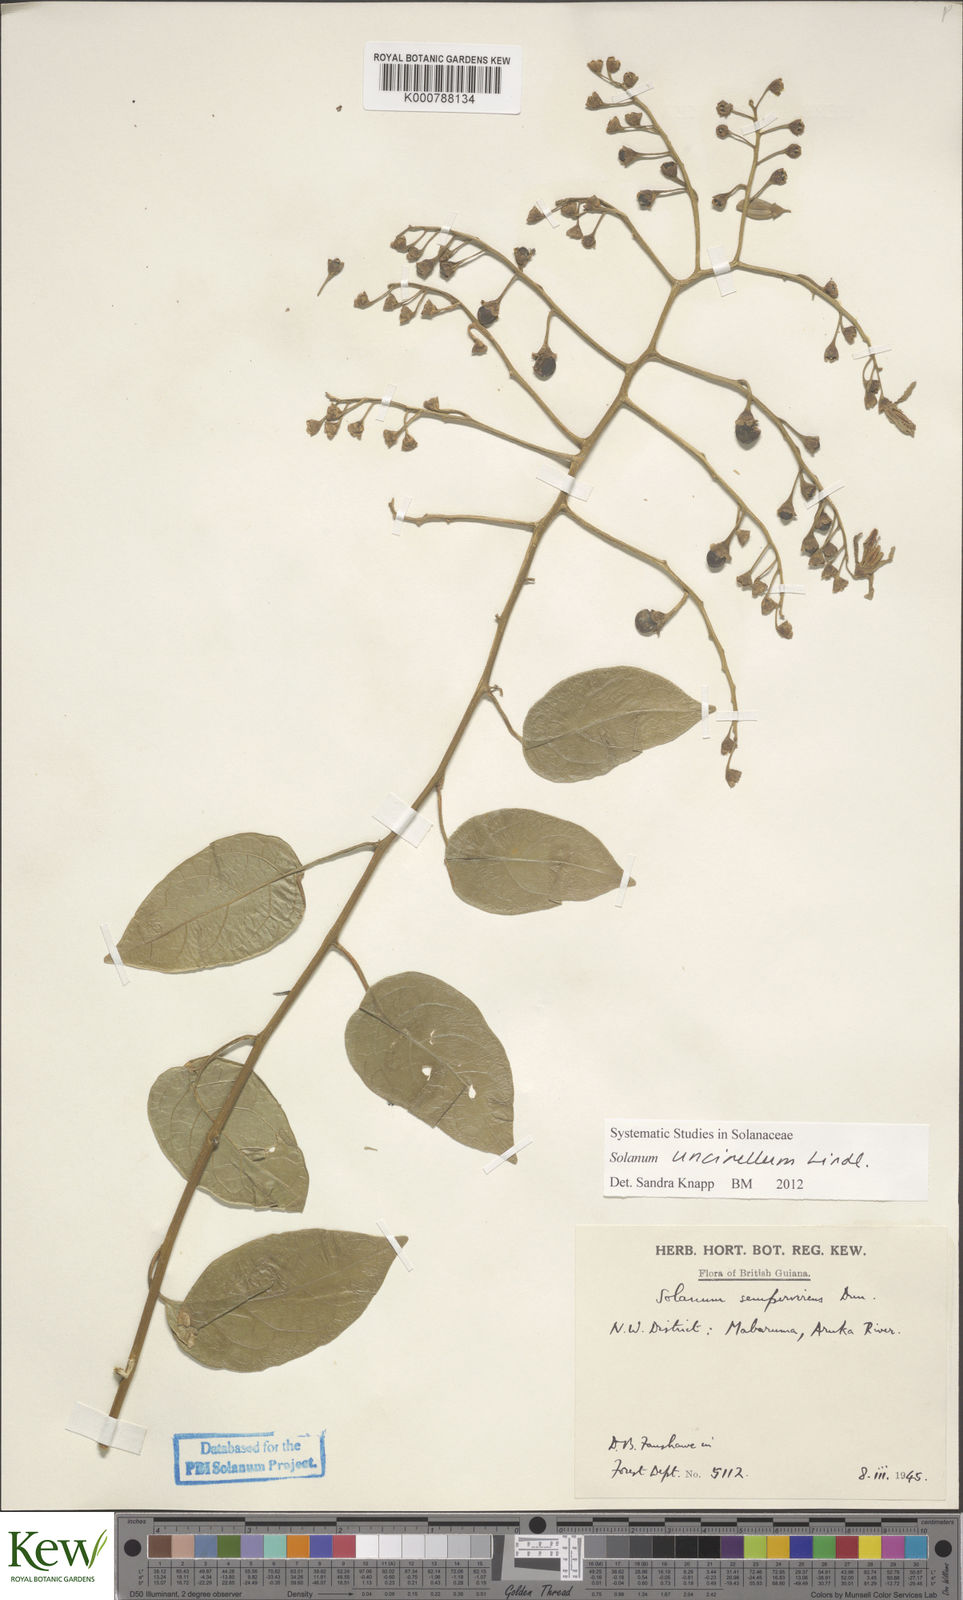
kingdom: Plantae
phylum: Tracheophyta
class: Magnoliopsida
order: Solanales
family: Solanaceae
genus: Solanum
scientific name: Solanum uncinellum
